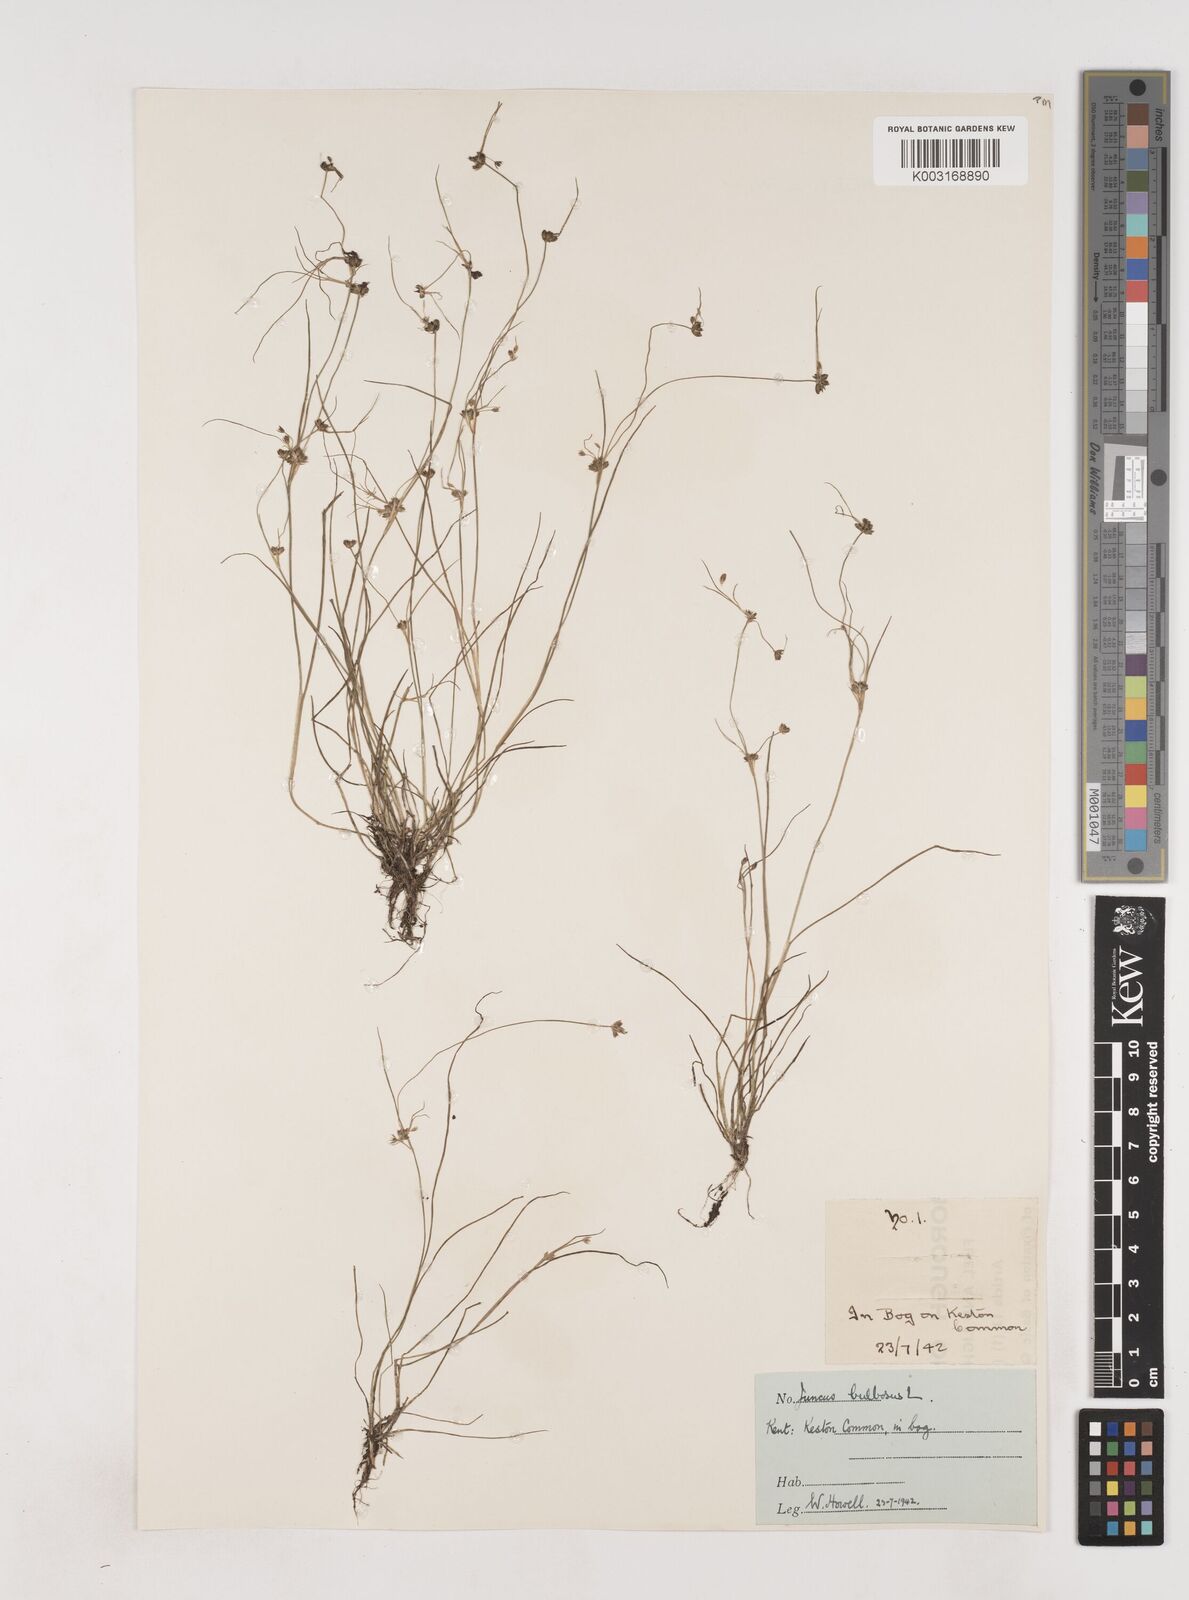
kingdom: Plantae
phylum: Tracheophyta
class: Liliopsida
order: Poales
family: Juncaceae
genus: Juncus
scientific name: Juncus bulbosus
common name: Bulbous rush
